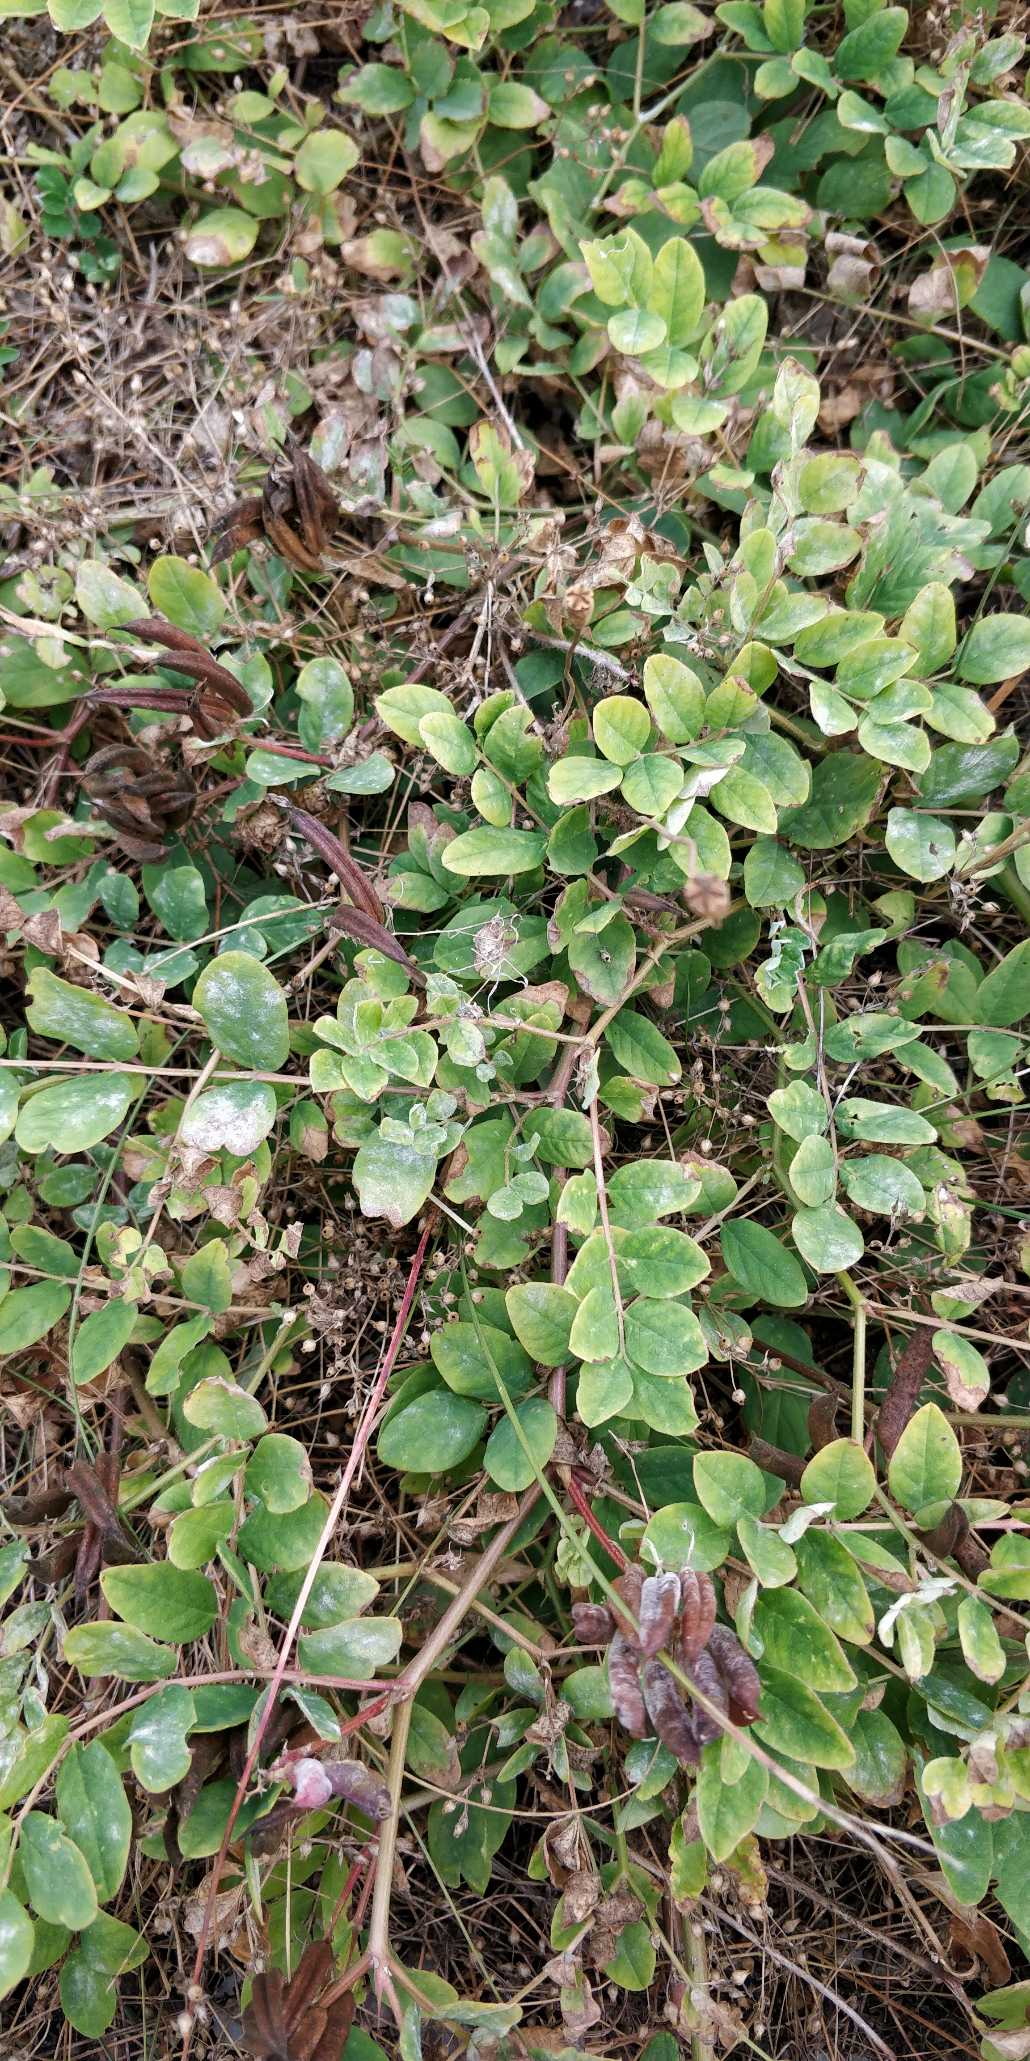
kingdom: Plantae
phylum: Tracheophyta
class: Magnoliopsida
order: Fabales
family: Fabaceae
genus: Astragalus
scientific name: Astragalus glycyphyllos
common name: Sød astragel
